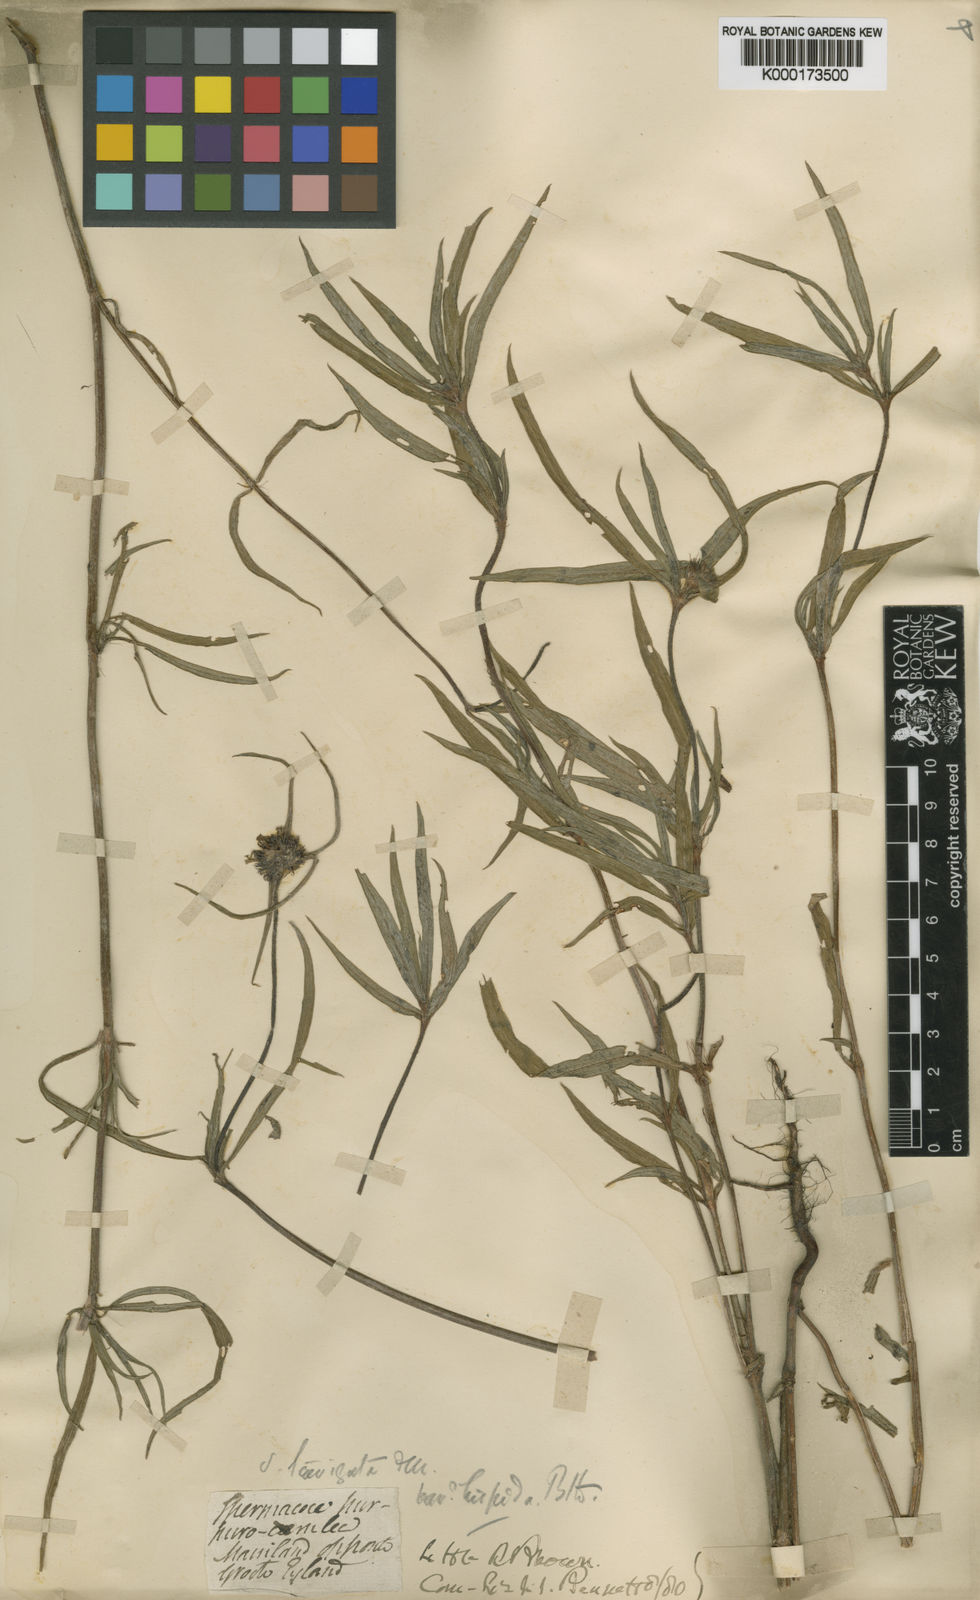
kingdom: Plantae
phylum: Tracheophyta
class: Magnoliopsida
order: Gentianales
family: Rubiaceae
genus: Spermacoce
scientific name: Spermacoce elaiosoma
